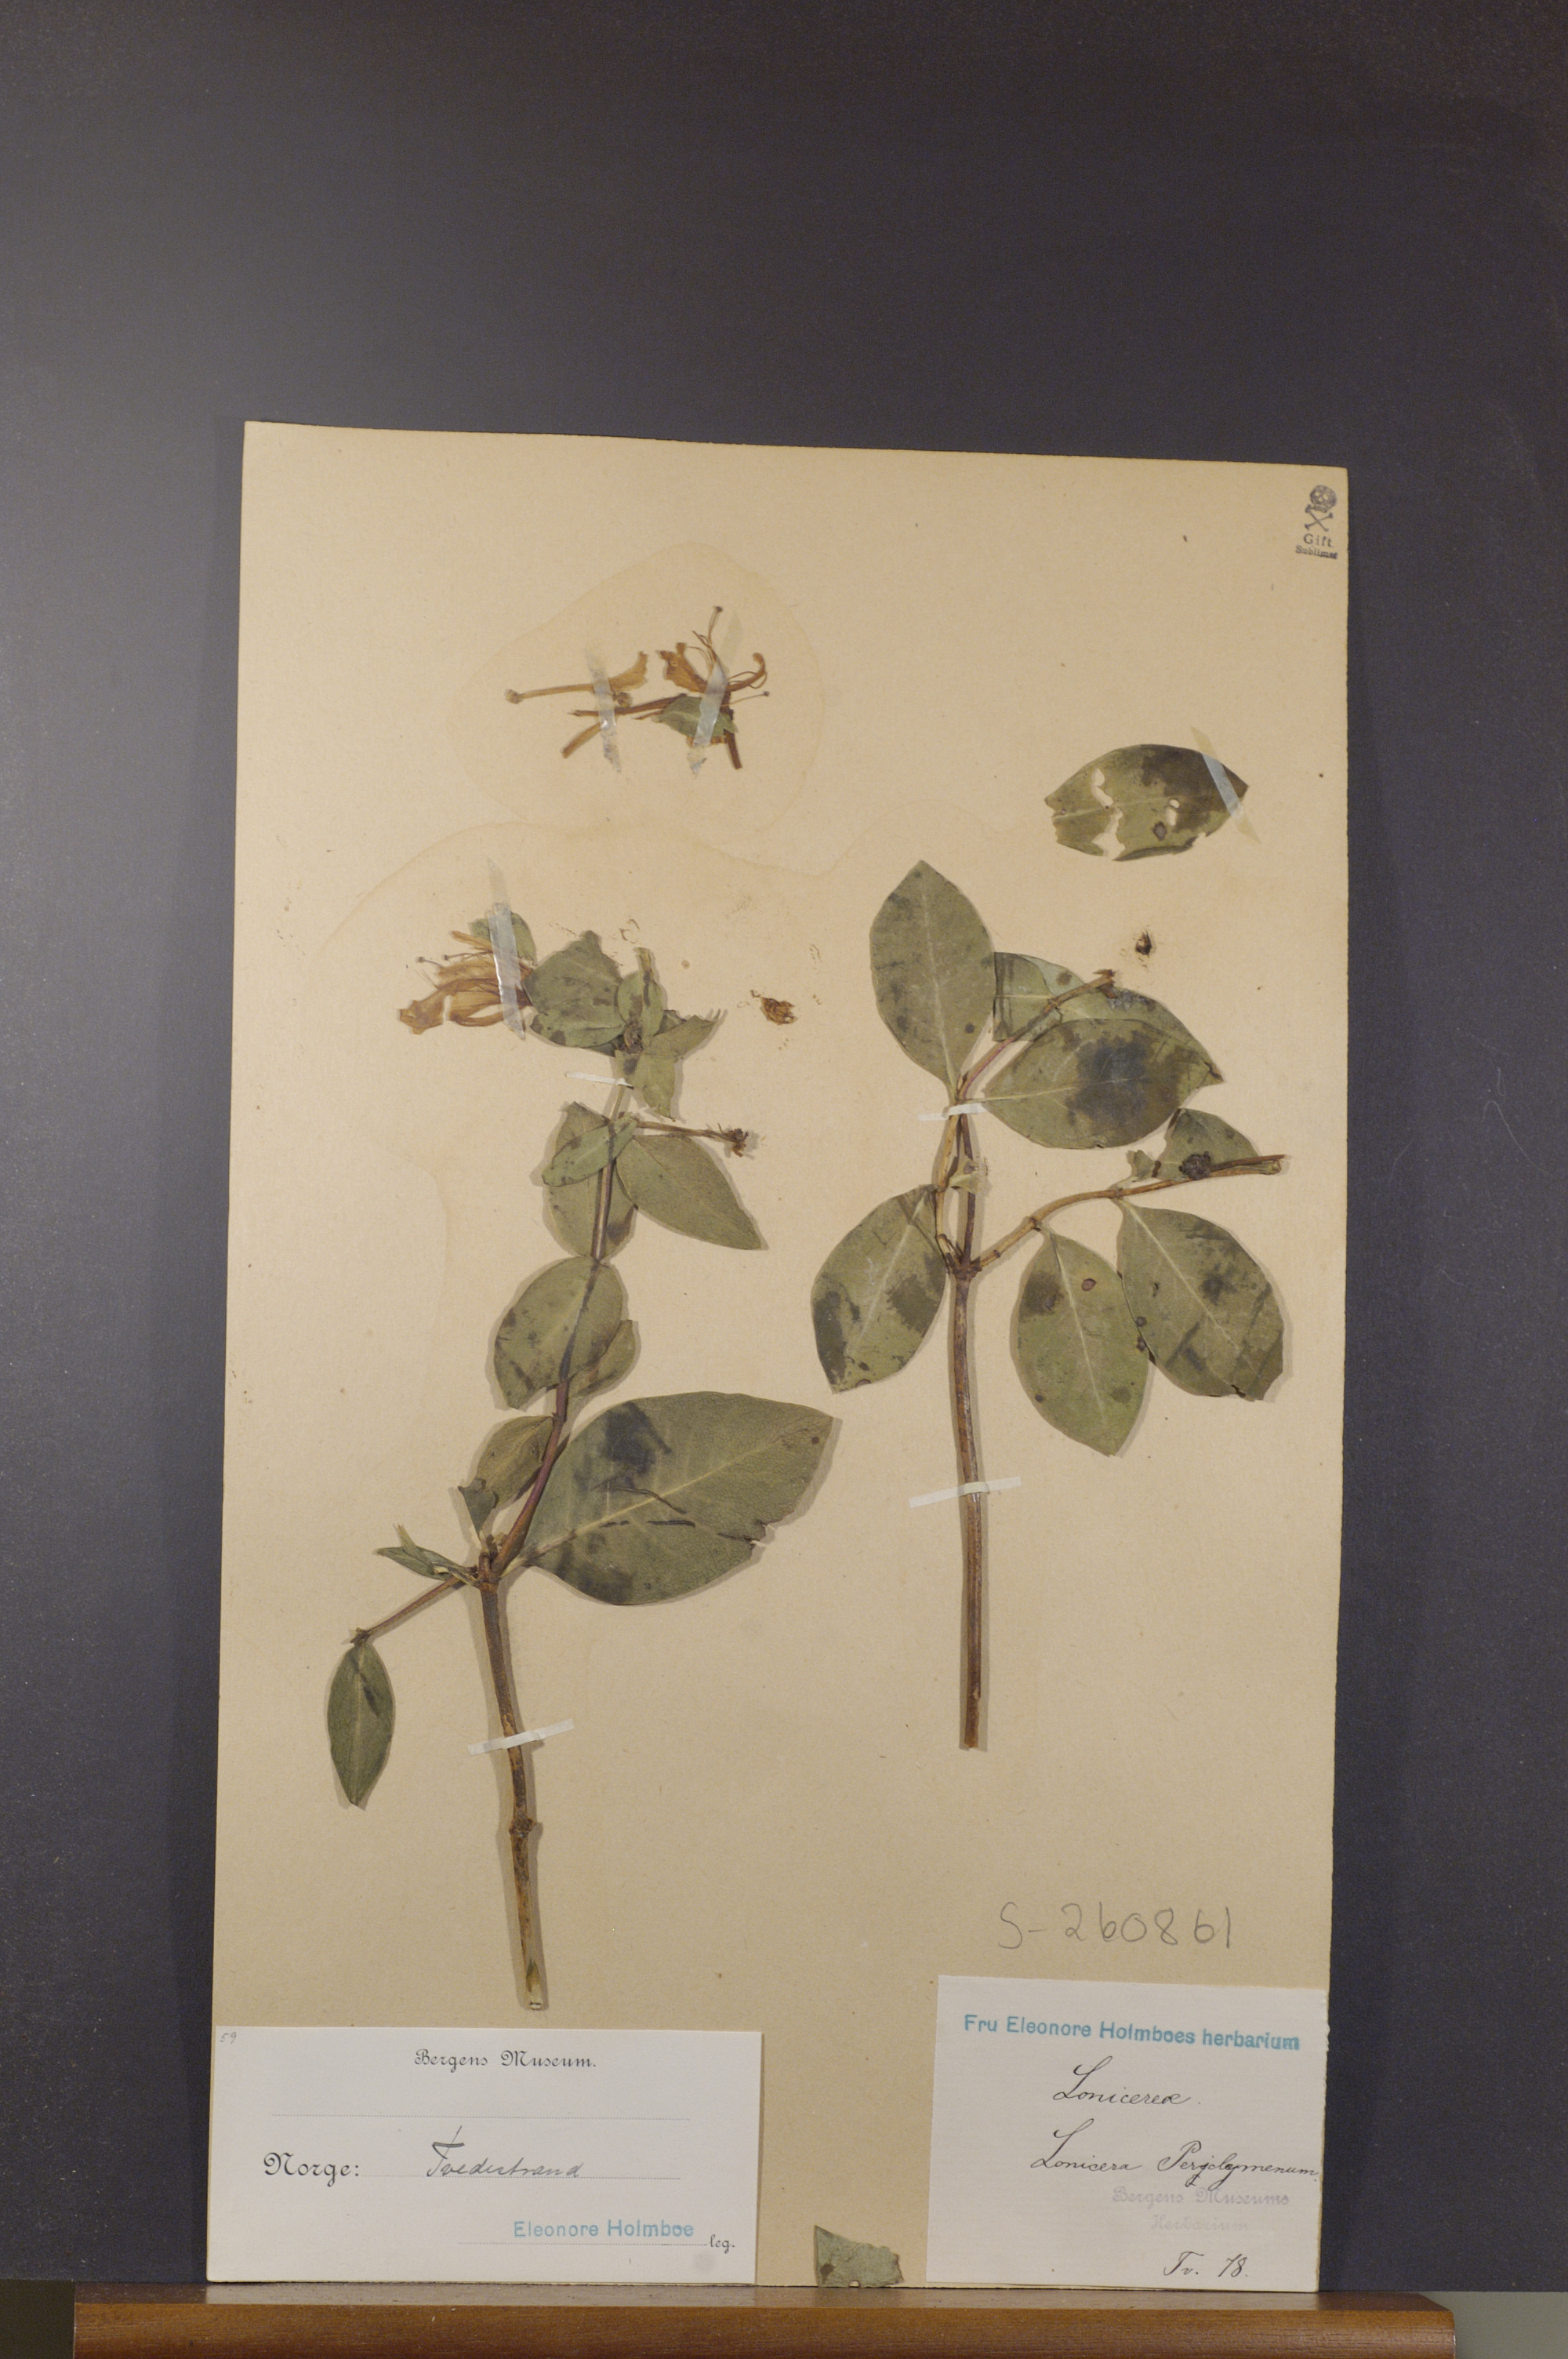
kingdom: Plantae
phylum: Tracheophyta
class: Magnoliopsida
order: Dipsacales
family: Caprifoliaceae
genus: Lonicera
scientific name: Lonicera periclymenum
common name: European honeysuckle
